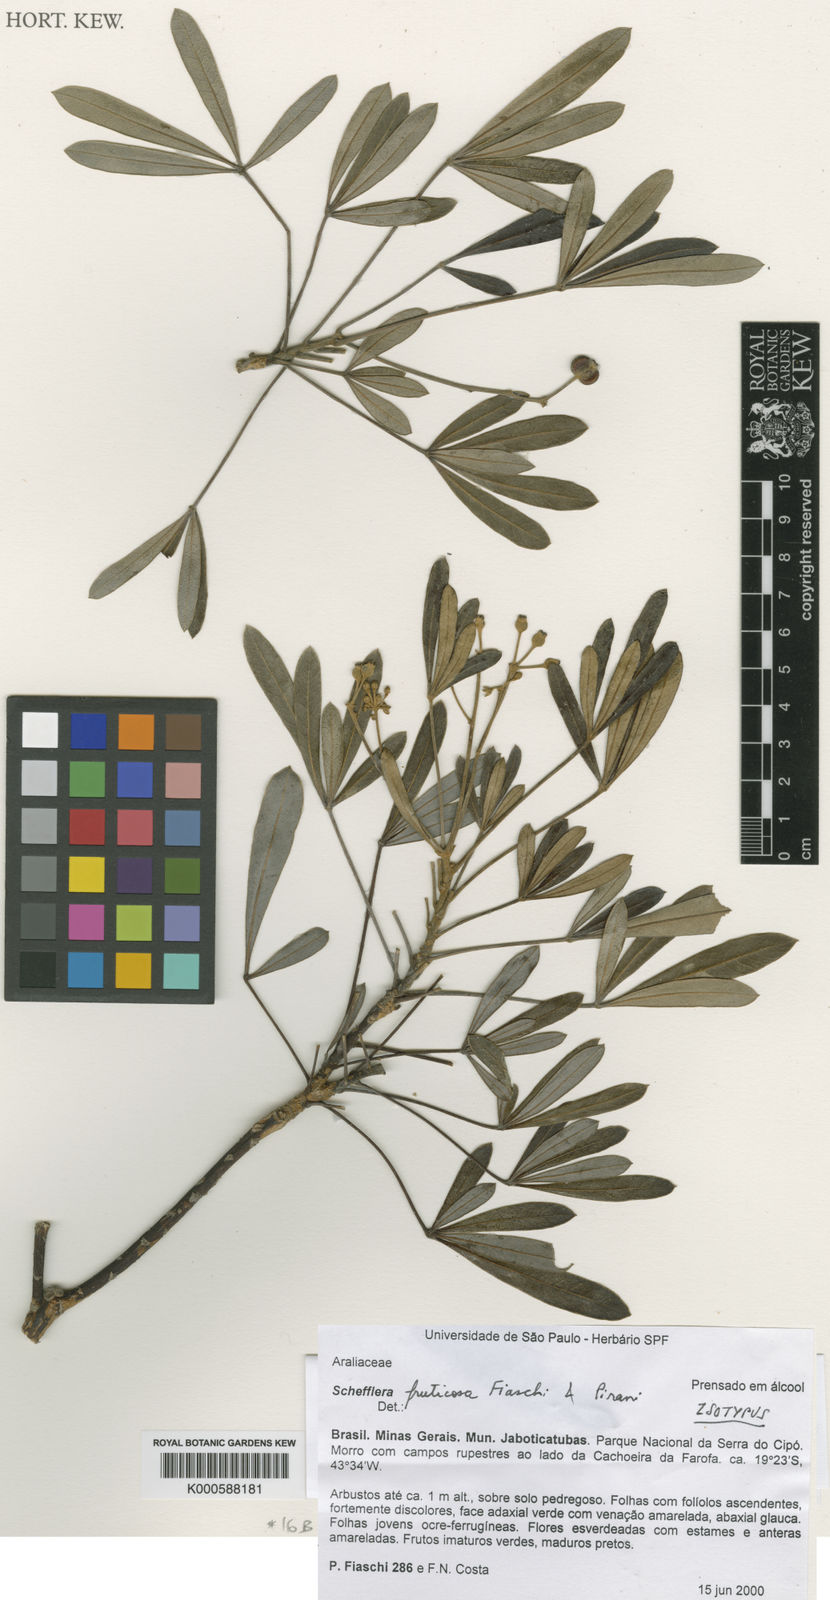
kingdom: Plantae
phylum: Tracheophyta
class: Magnoliopsida
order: Apiales
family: Araliaceae
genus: Didymopanax
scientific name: Didymopanax fruticosus
